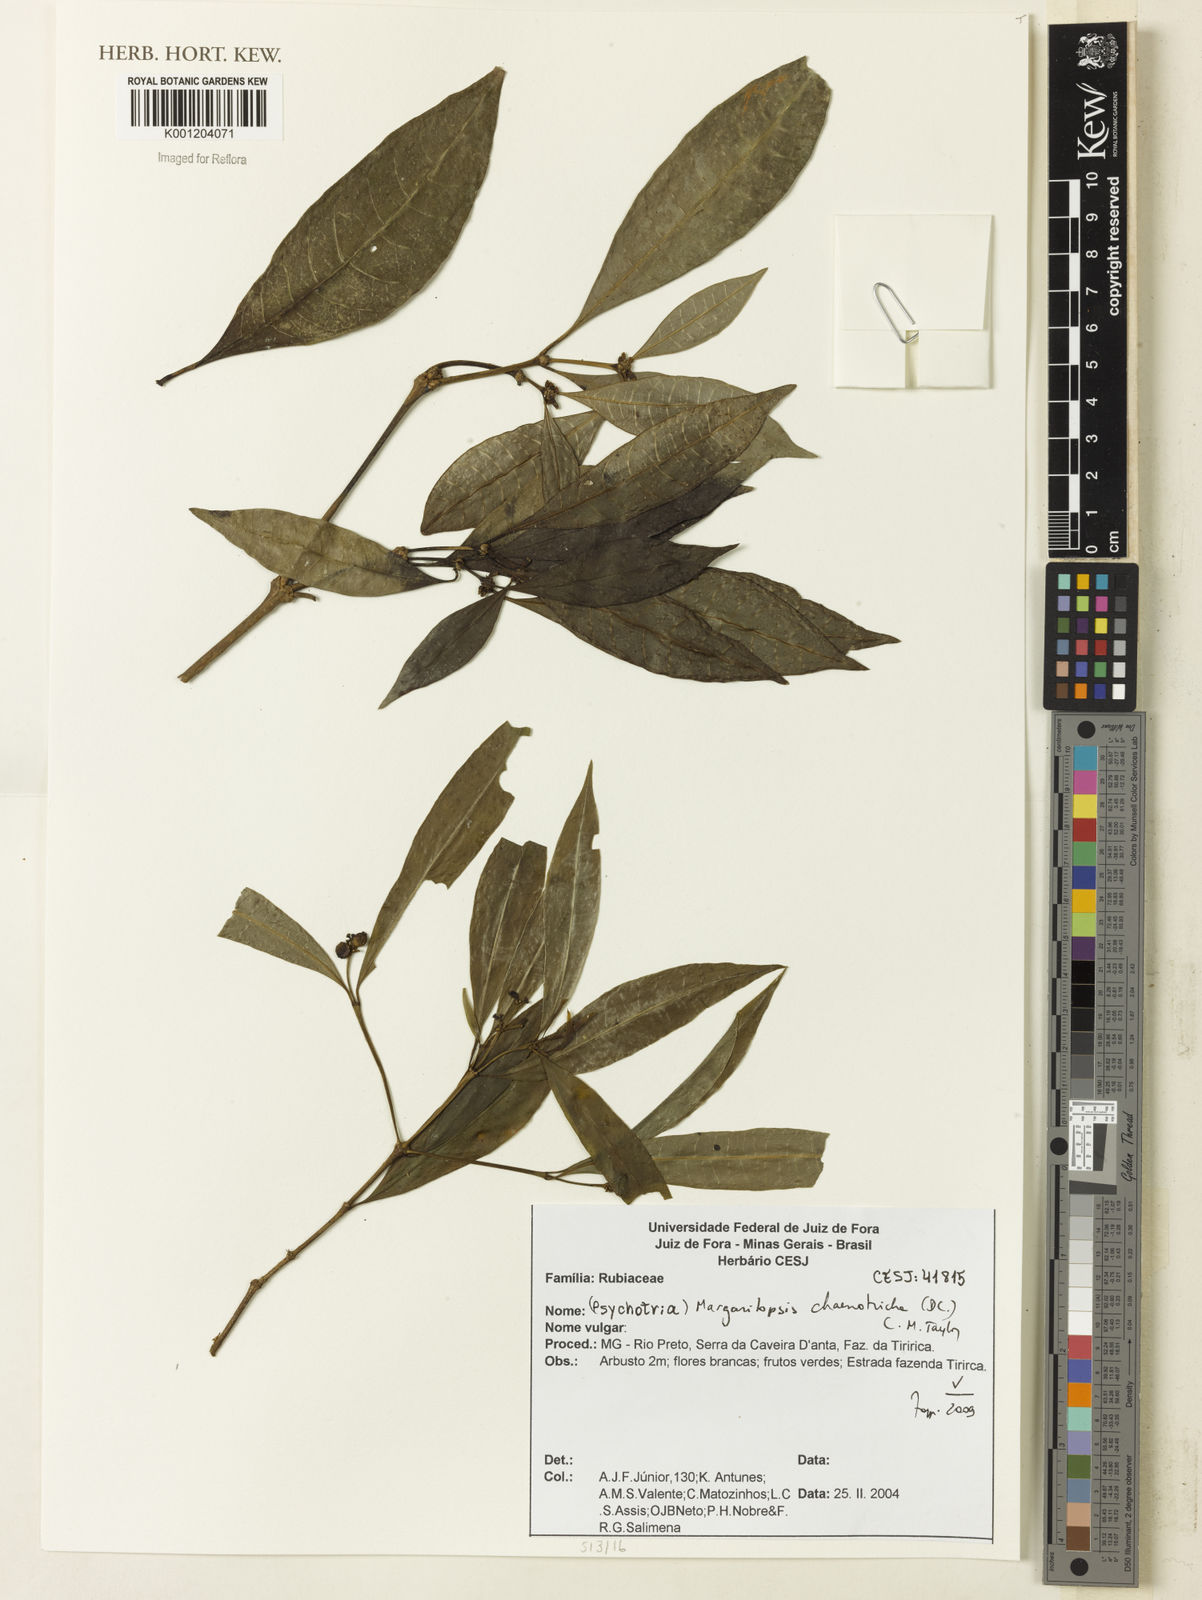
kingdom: Plantae
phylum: Tracheophyta
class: Magnoliopsida
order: Gentianales
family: Rubiaceae
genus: Eumachia
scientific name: Eumachia chaenotricha
